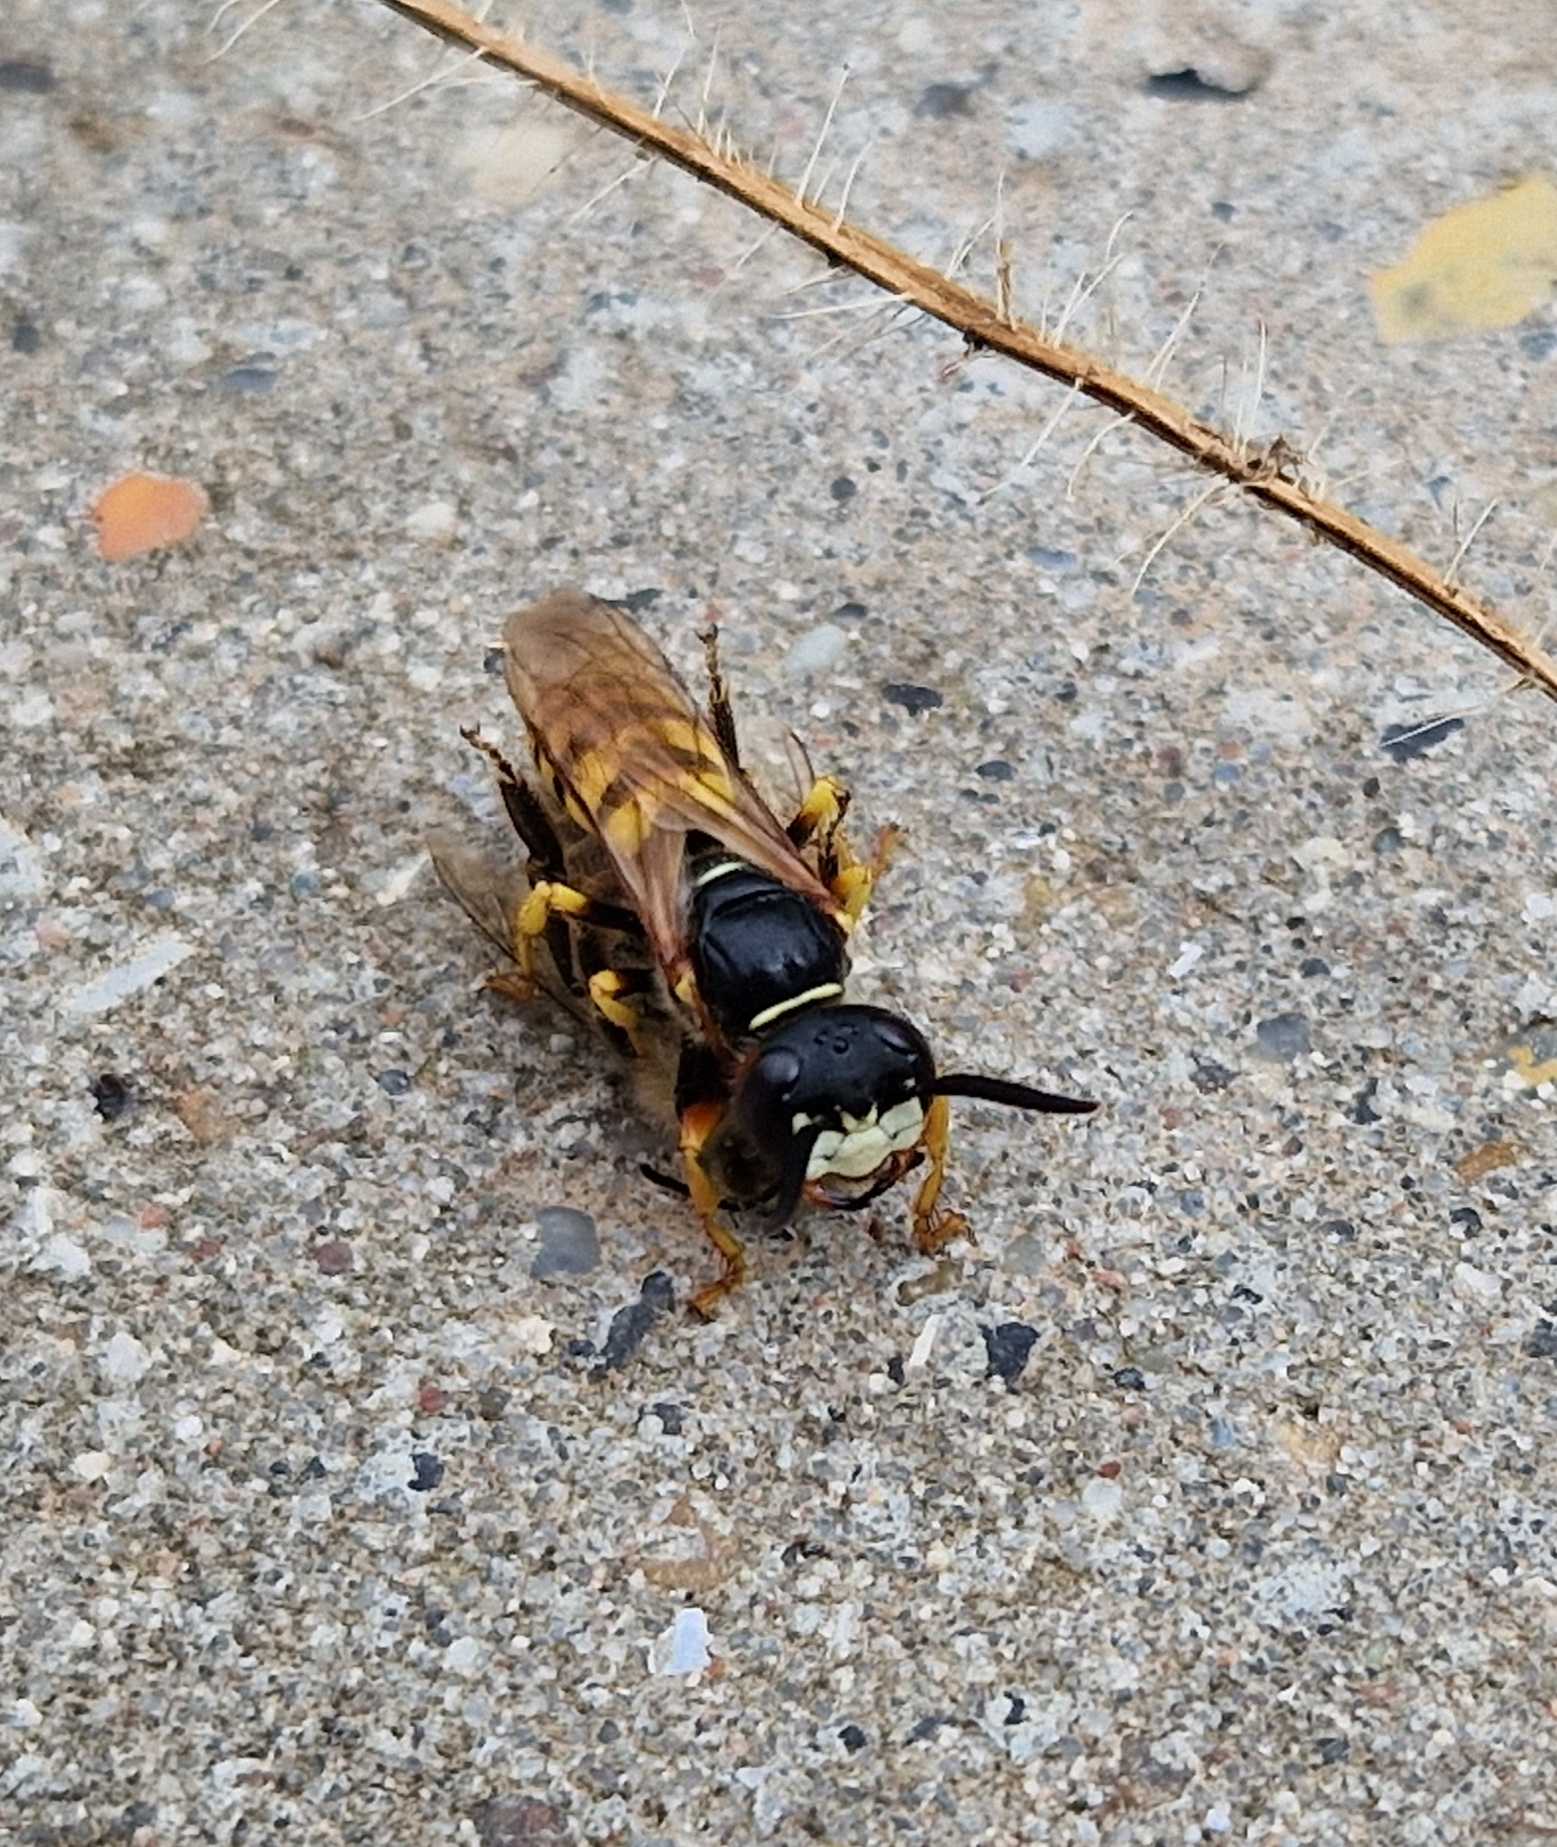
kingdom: Animalia
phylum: Arthropoda
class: Insecta
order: Hymenoptera
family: Crabronidae
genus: Philanthus
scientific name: Philanthus triangulum
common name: Biulv
